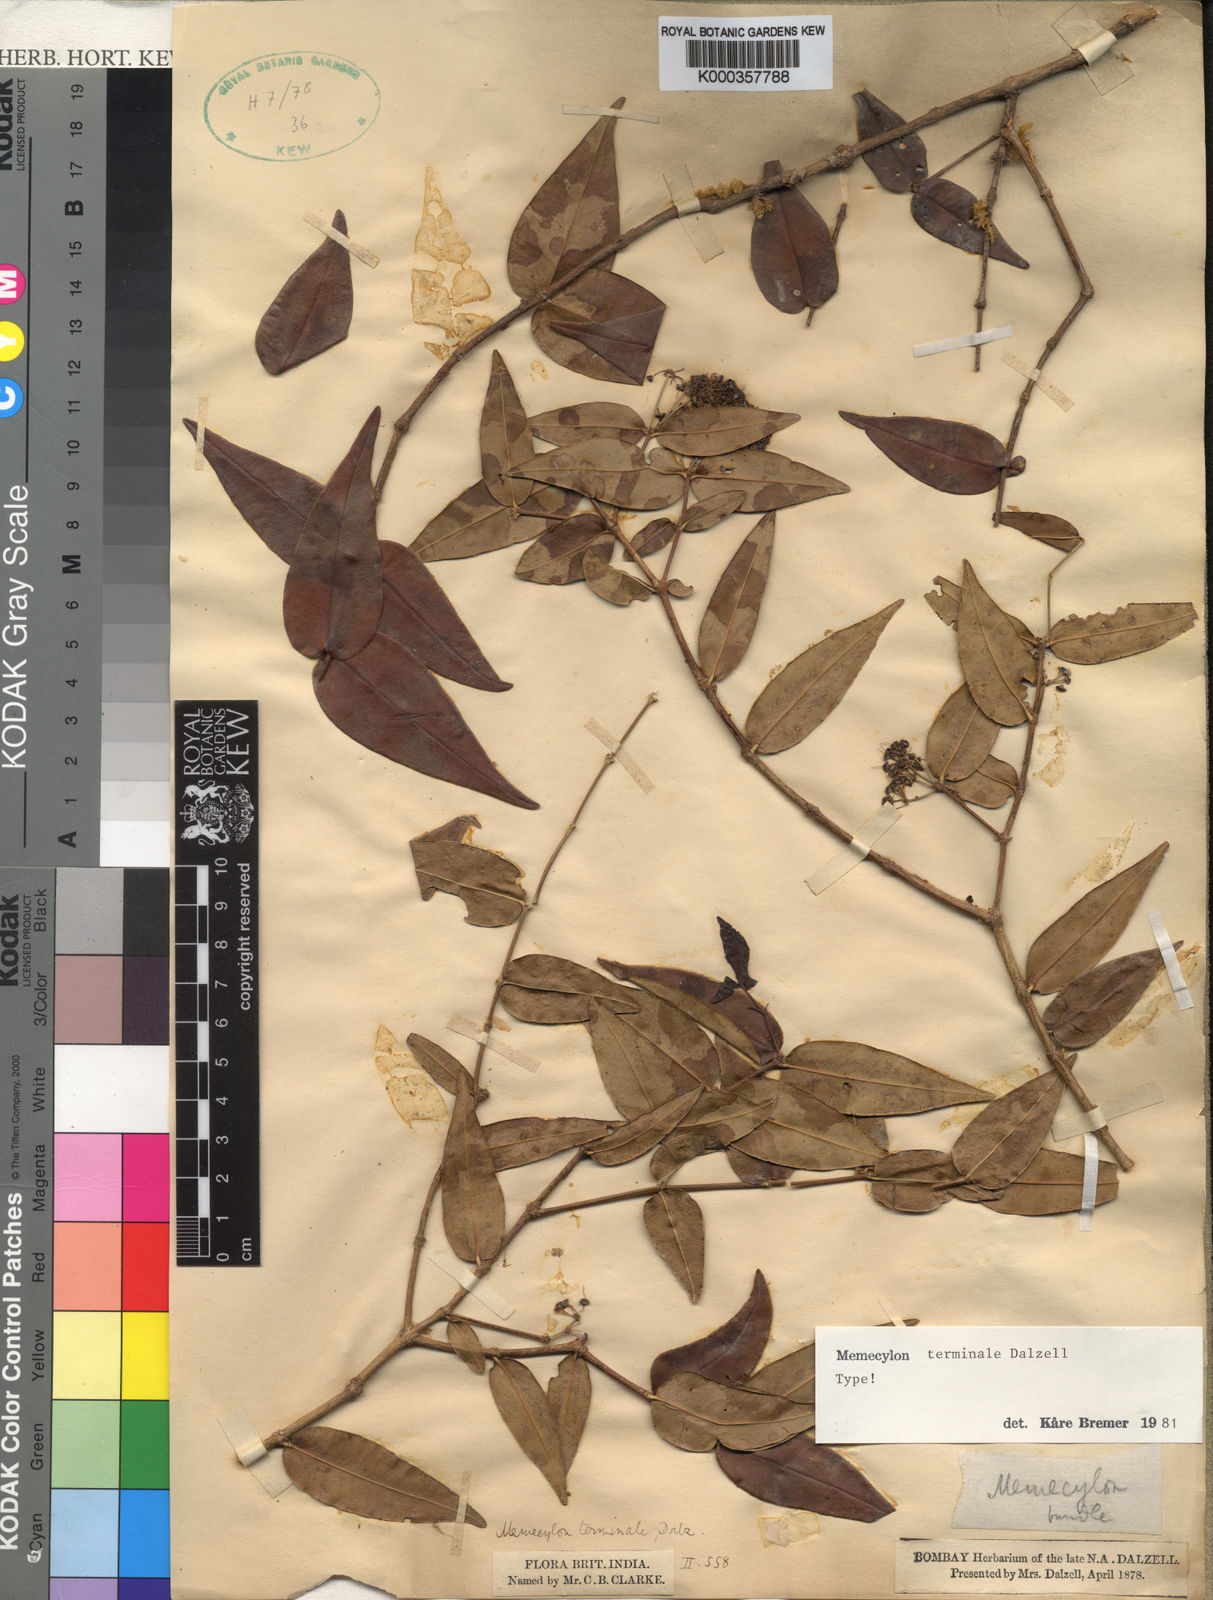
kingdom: Plantae
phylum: Tracheophyta
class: Magnoliopsida
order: Myrtales
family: Melastomataceae
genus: Memecylon
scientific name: Memecylon terminale
